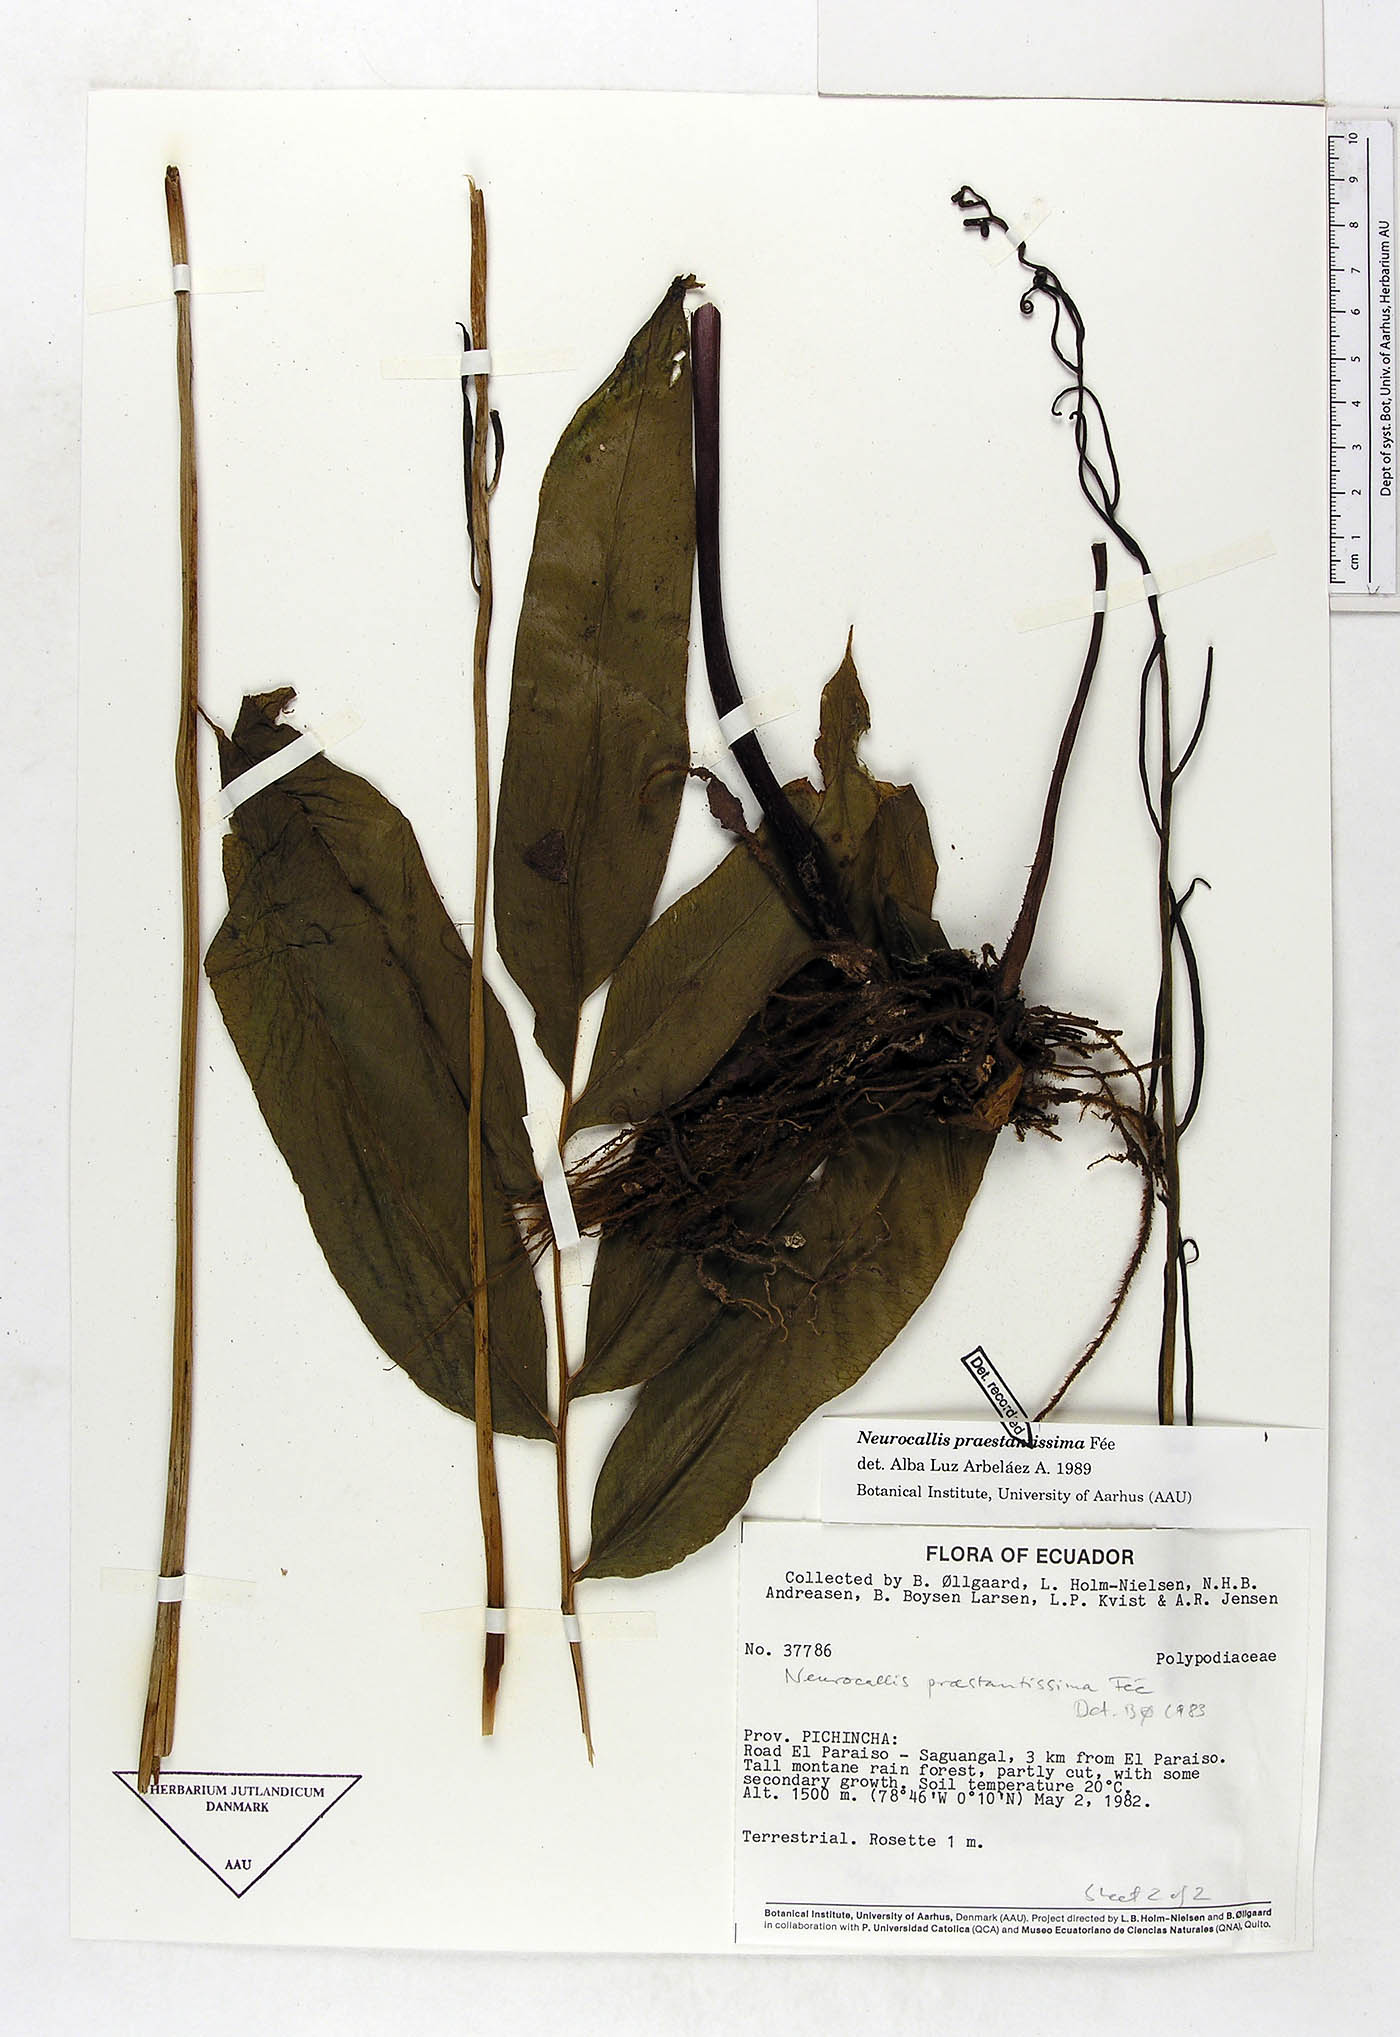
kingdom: Plantae
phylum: Tracheophyta
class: Polypodiopsida
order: Polypodiales
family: Pteridaceae
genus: Pteris
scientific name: Pteris praestantissima
